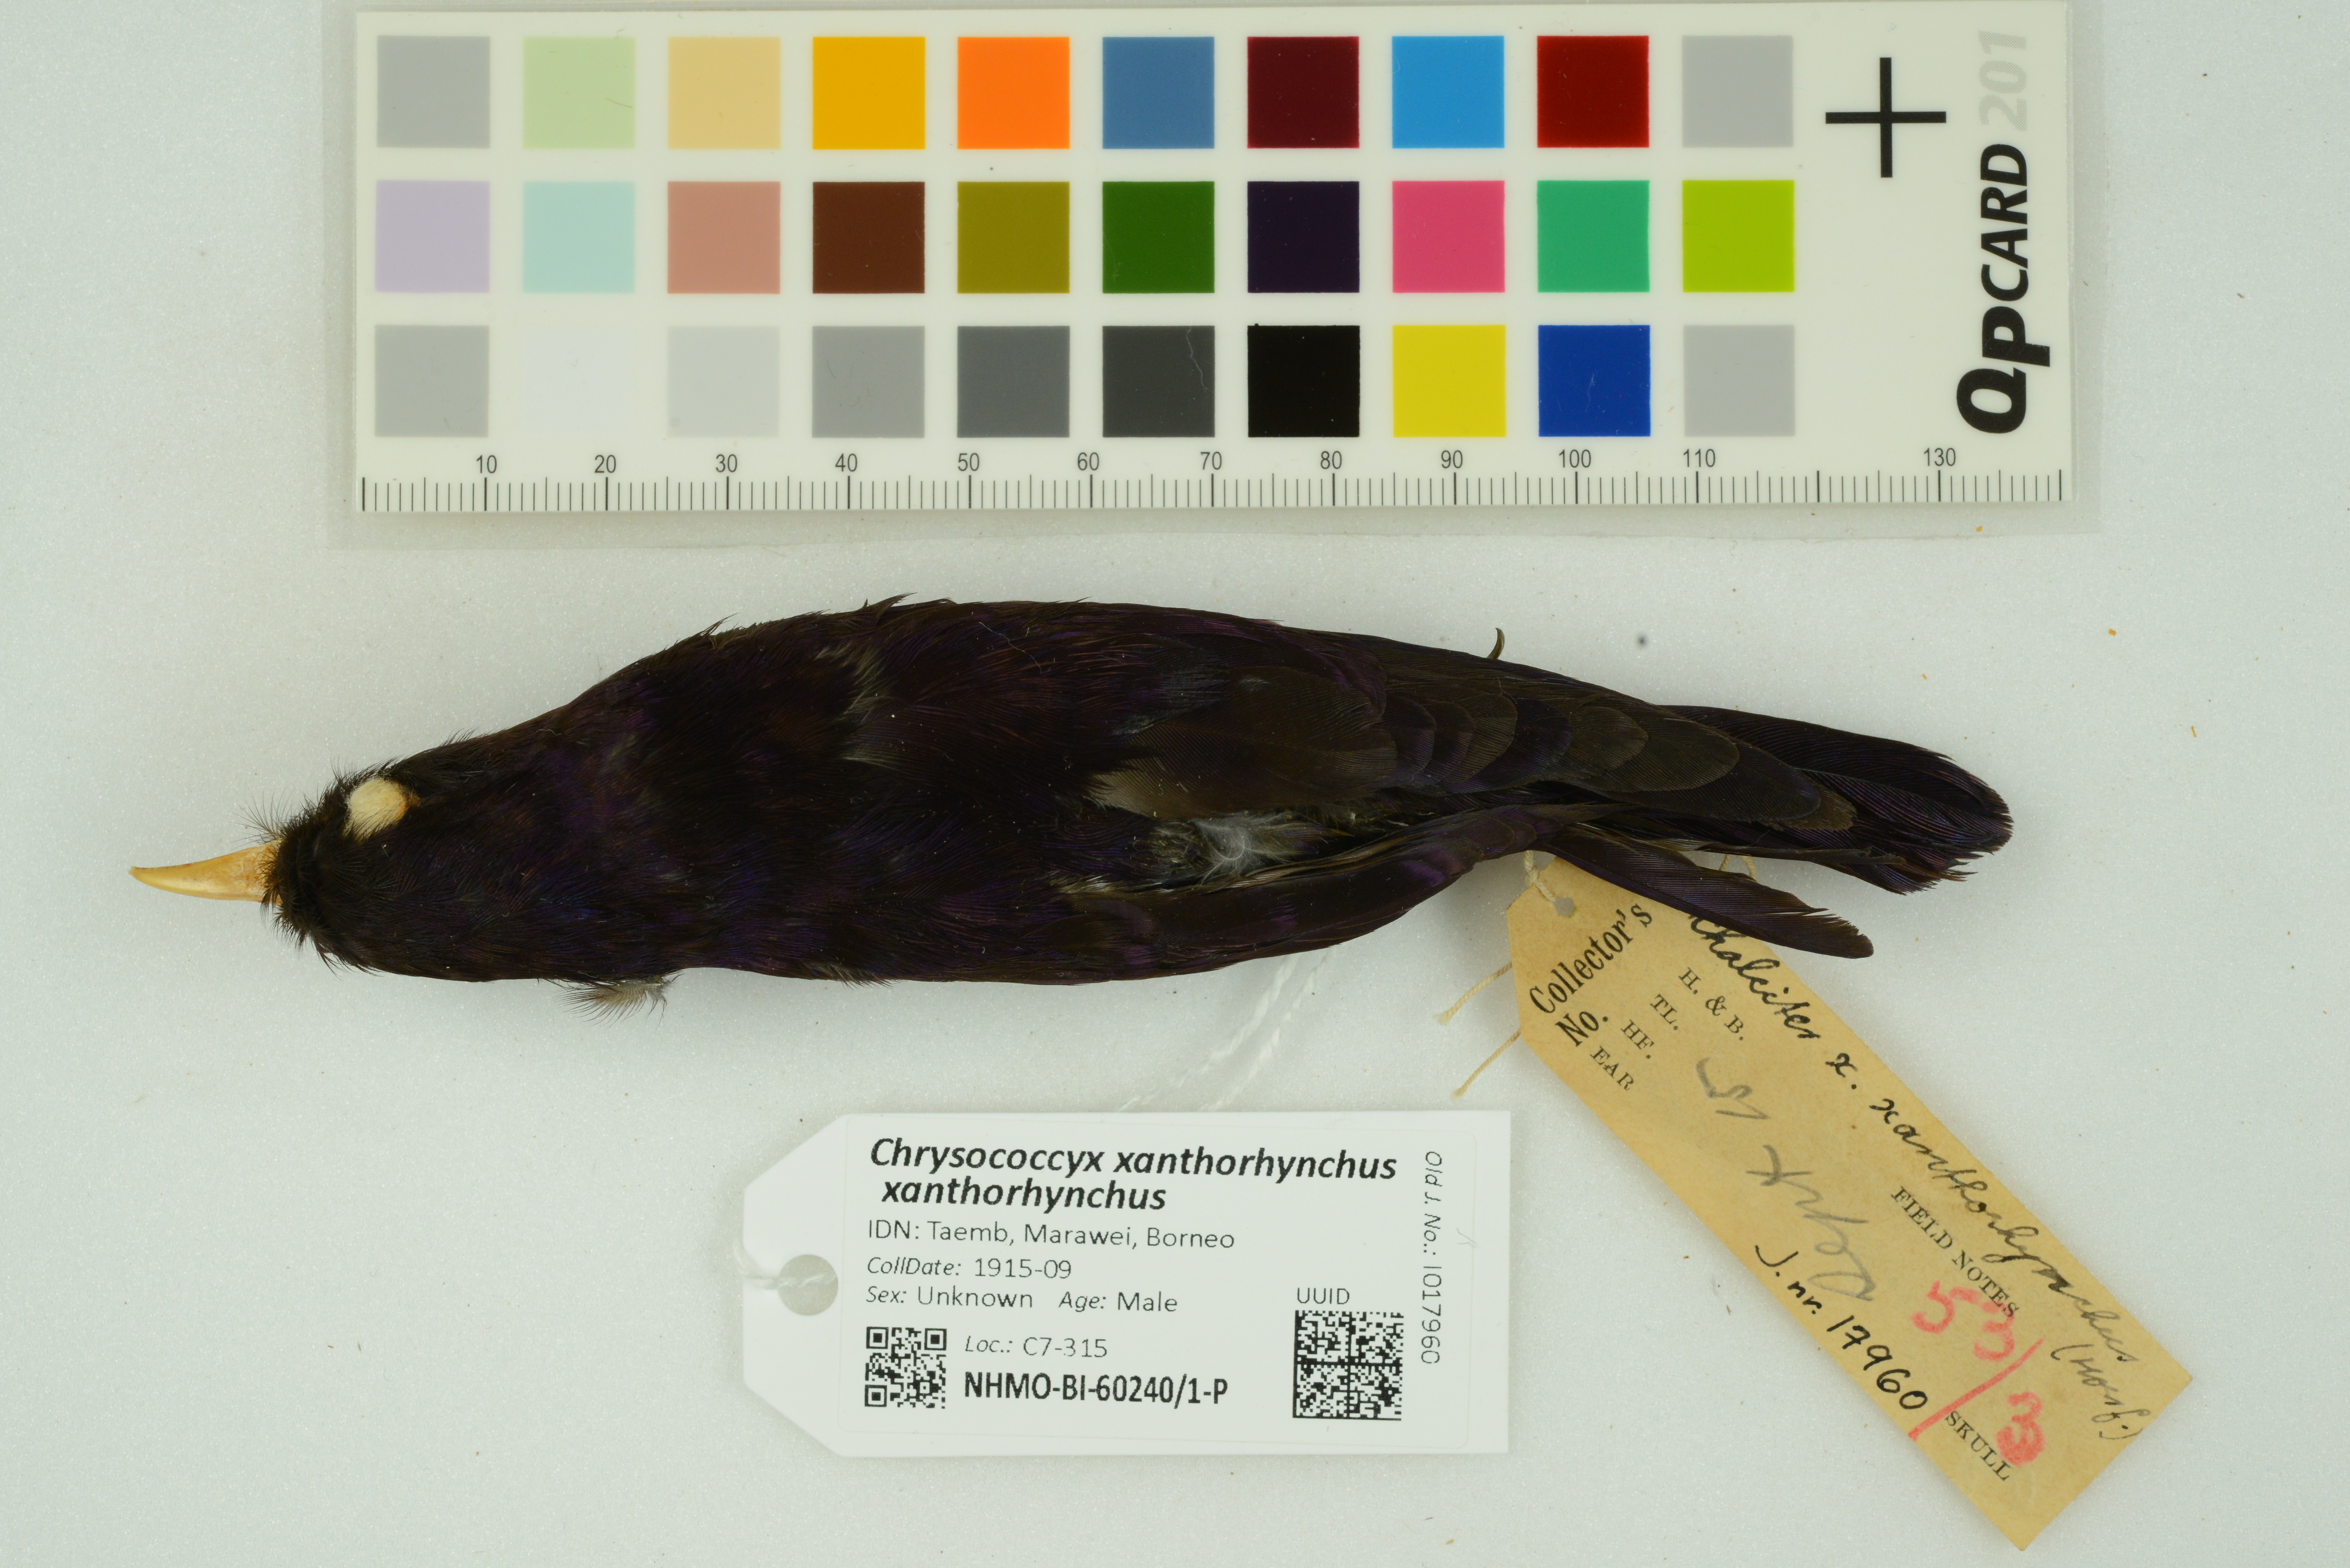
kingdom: Animalia
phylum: Chordata
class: Aves
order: Cuculiformes
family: Cuculidae
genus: Chrysococcyx
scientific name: Chrysococcyx xanthorhynchus
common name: Violet cuckoo
